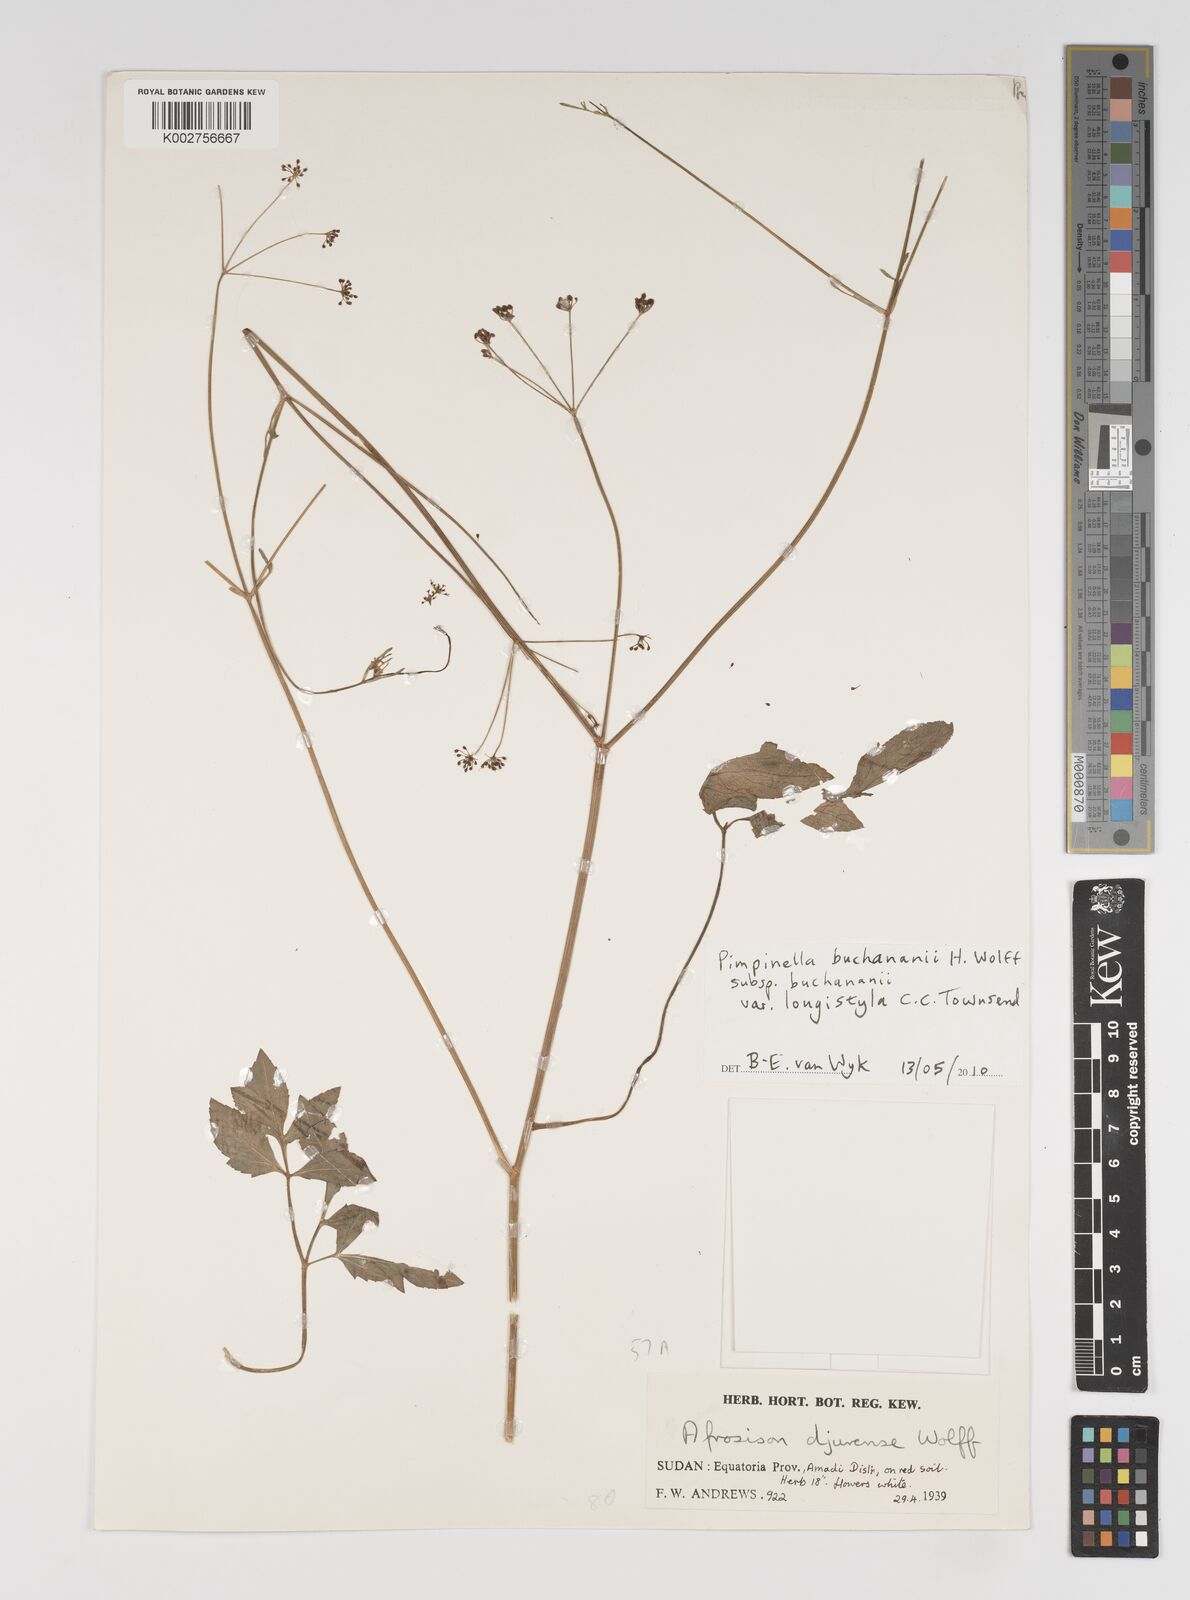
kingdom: Plantae
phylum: Tracheophyta
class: Magnoliopsida
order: Apiales
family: Apiaceae
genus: Pimpinella
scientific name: Pimpinella
